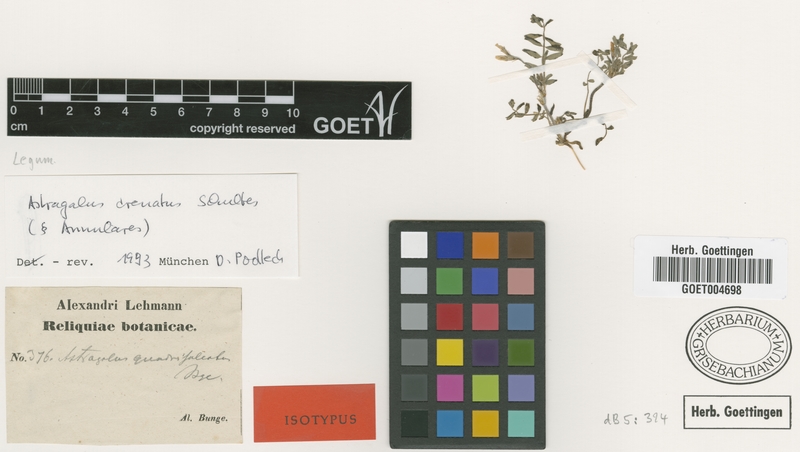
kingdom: Plantae
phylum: Tracheophyta
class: Magnoliopsida
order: Fabales
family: Fabaceae
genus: Astragalus
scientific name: Astragalus crenatus
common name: Milk vetch
